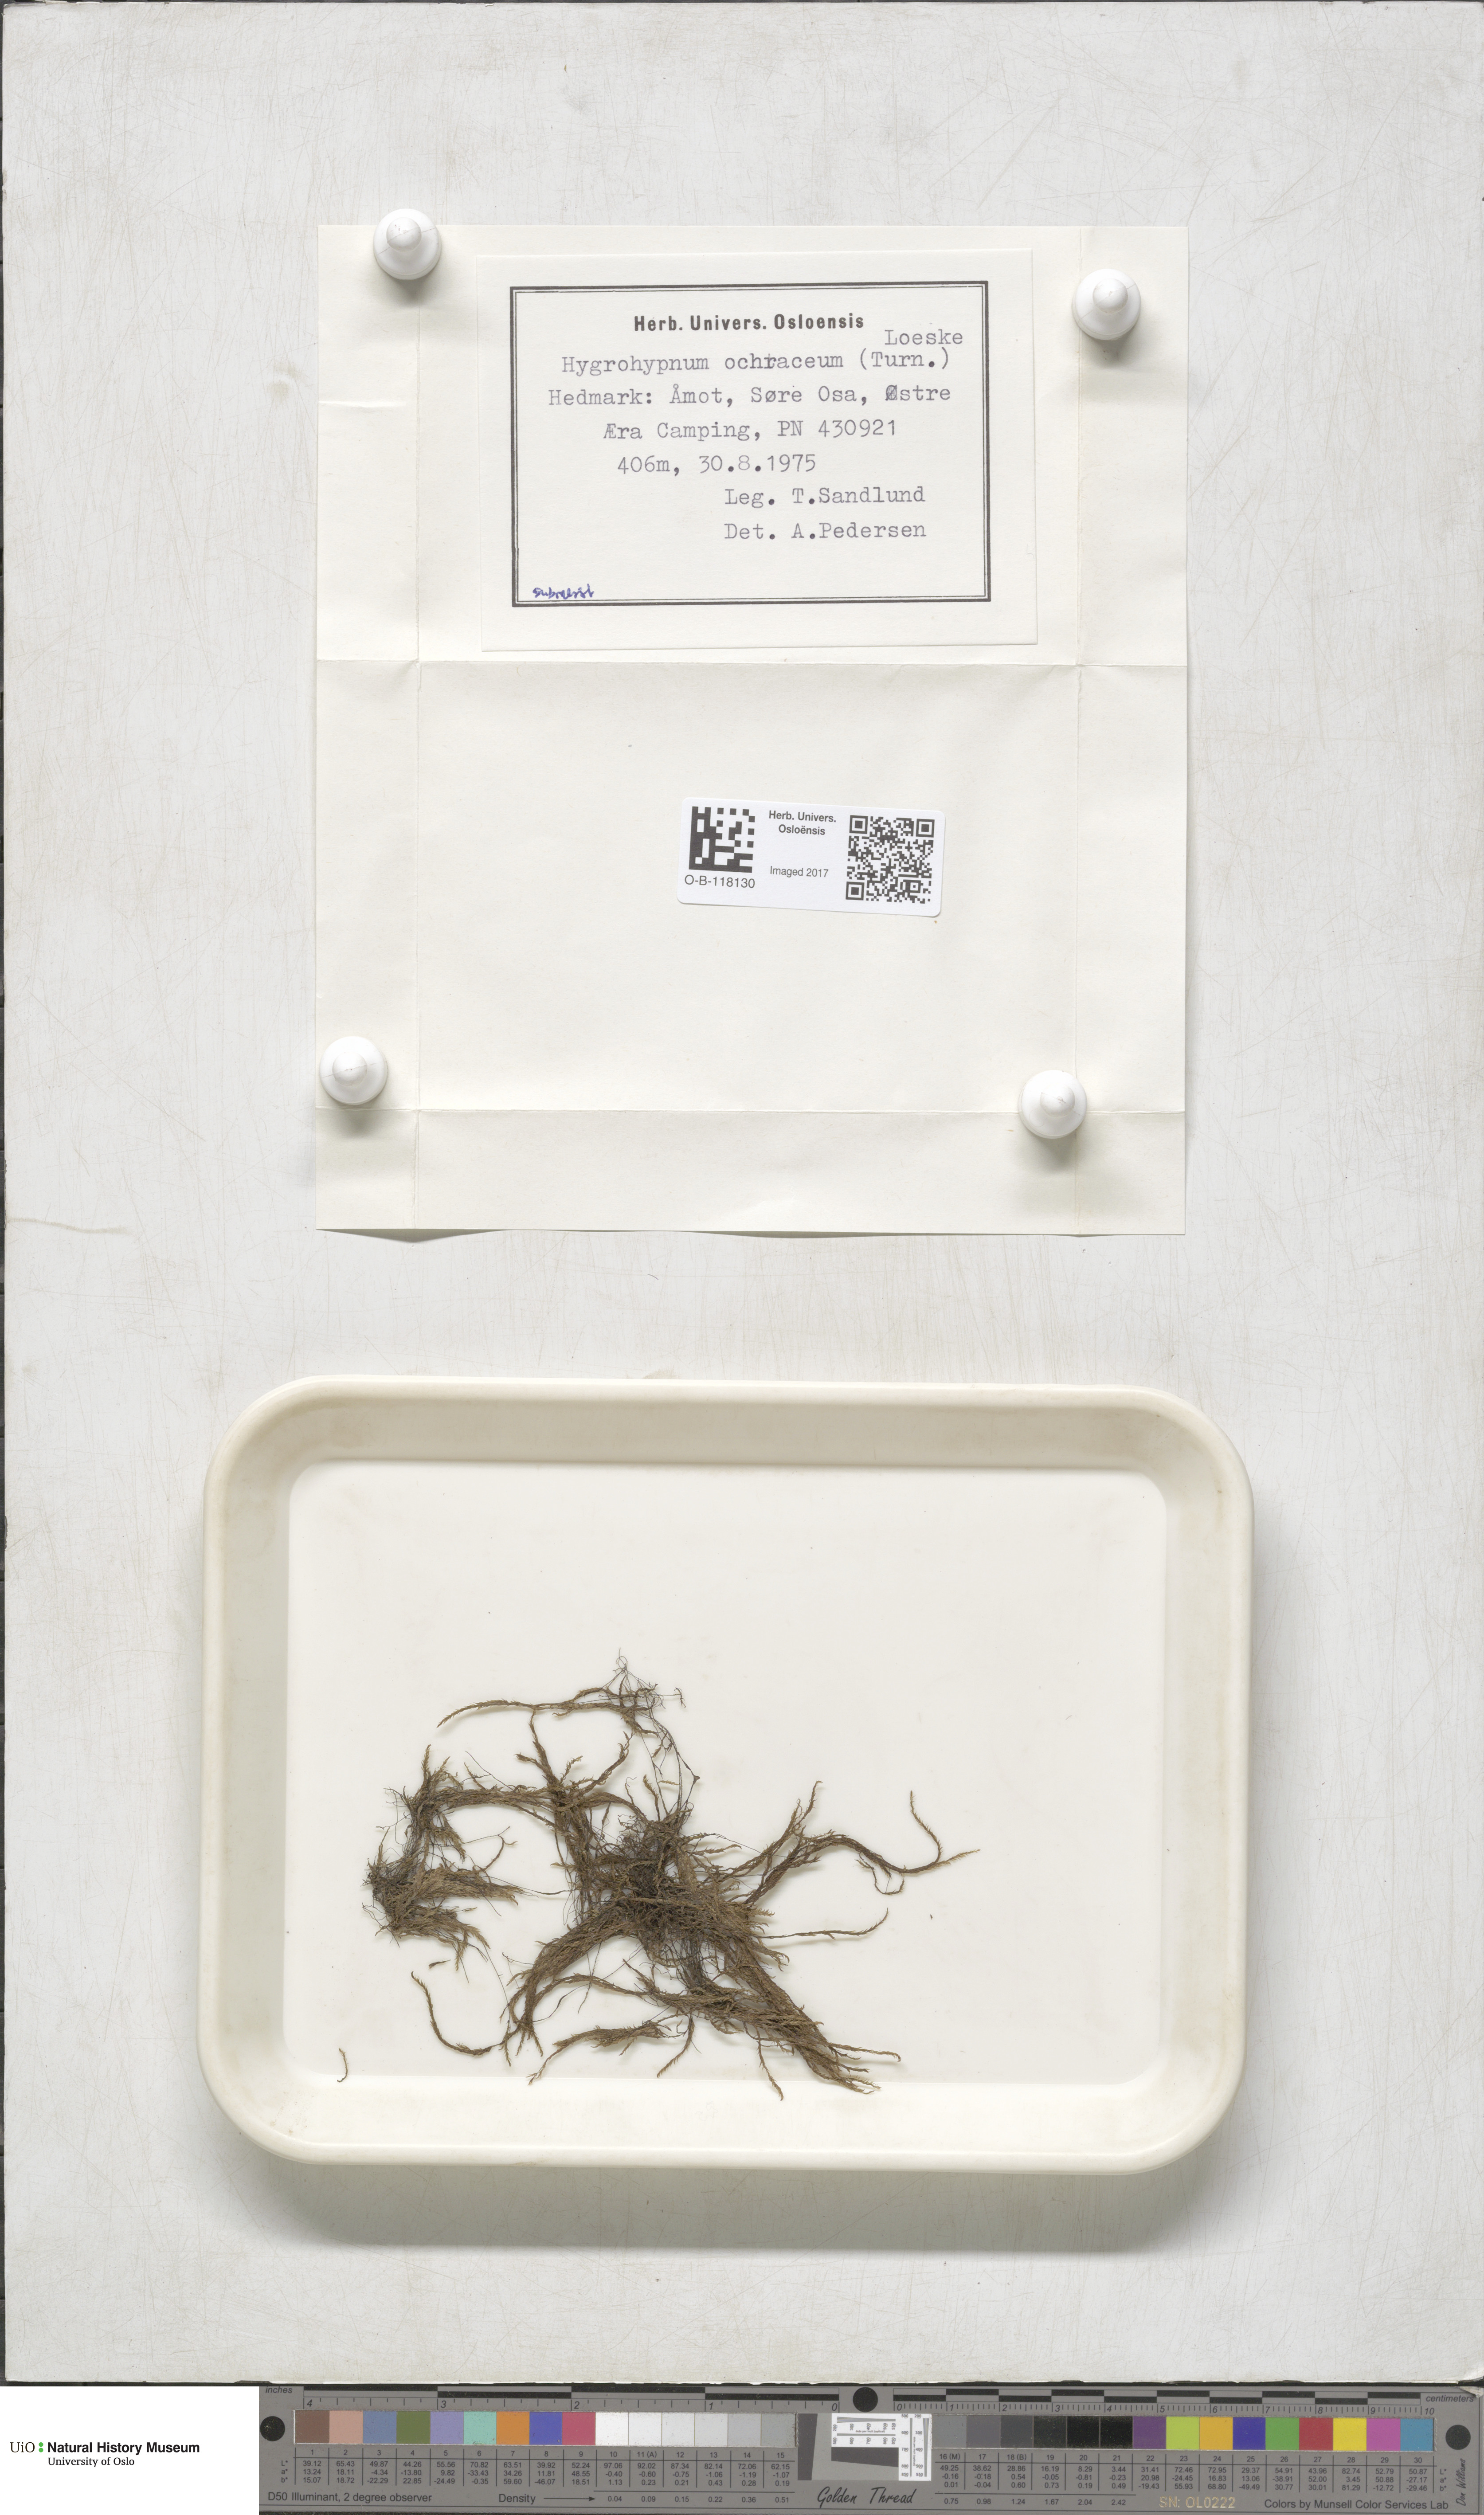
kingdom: Plantae
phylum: Bryophyta
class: Bryopsida
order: Hypnales
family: Scorpidiaceae
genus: Hygrohypnella
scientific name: Hygrohypnella ochracea
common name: Hygrohypnum moss
